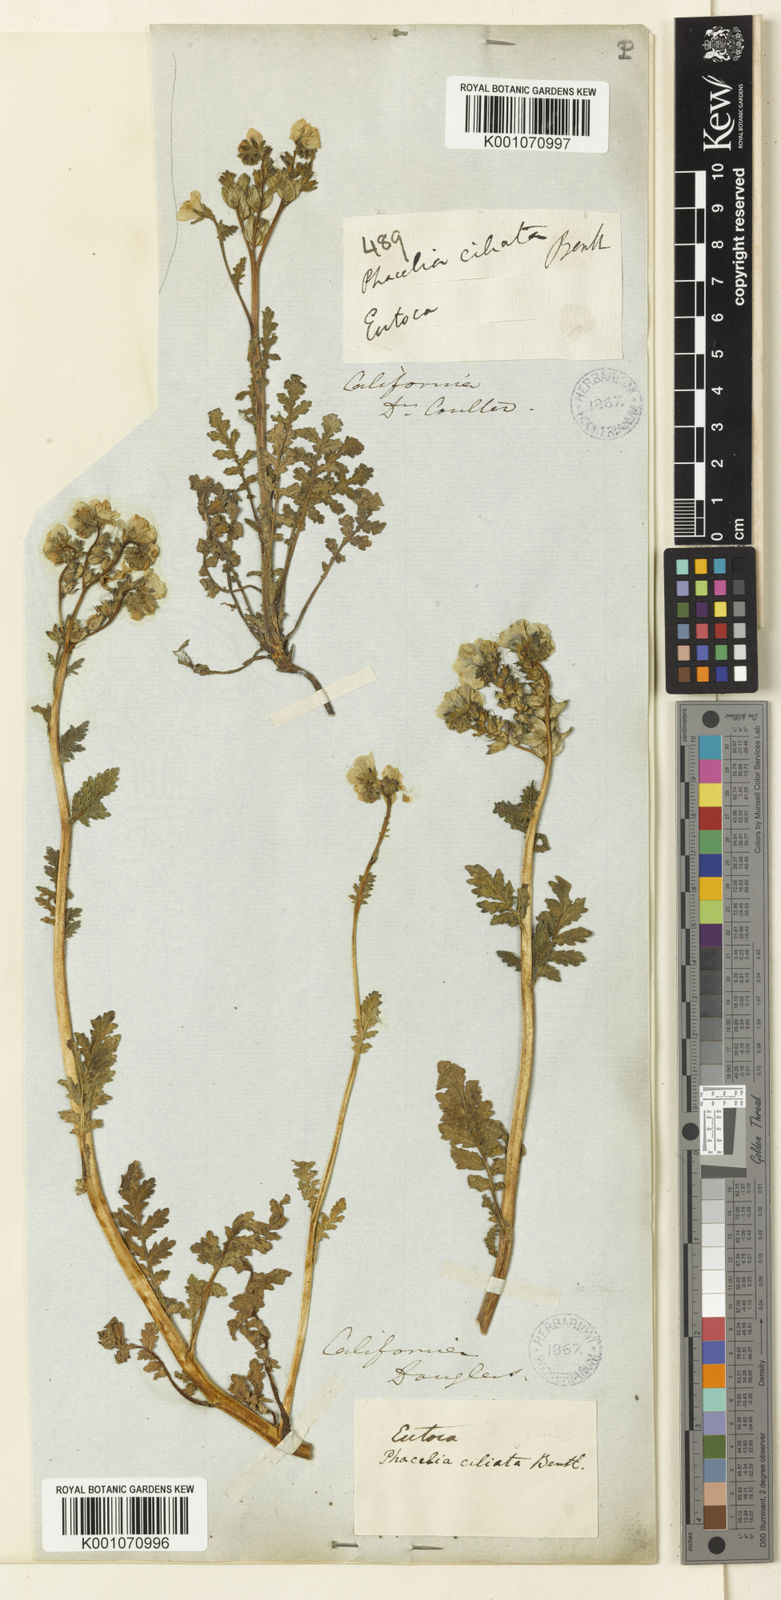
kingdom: Plantae
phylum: Tracheophyta
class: Magnoliopsida
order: Boraginales
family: Hydrophyllaceae
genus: Phacelia
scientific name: Phacelia ciliata
